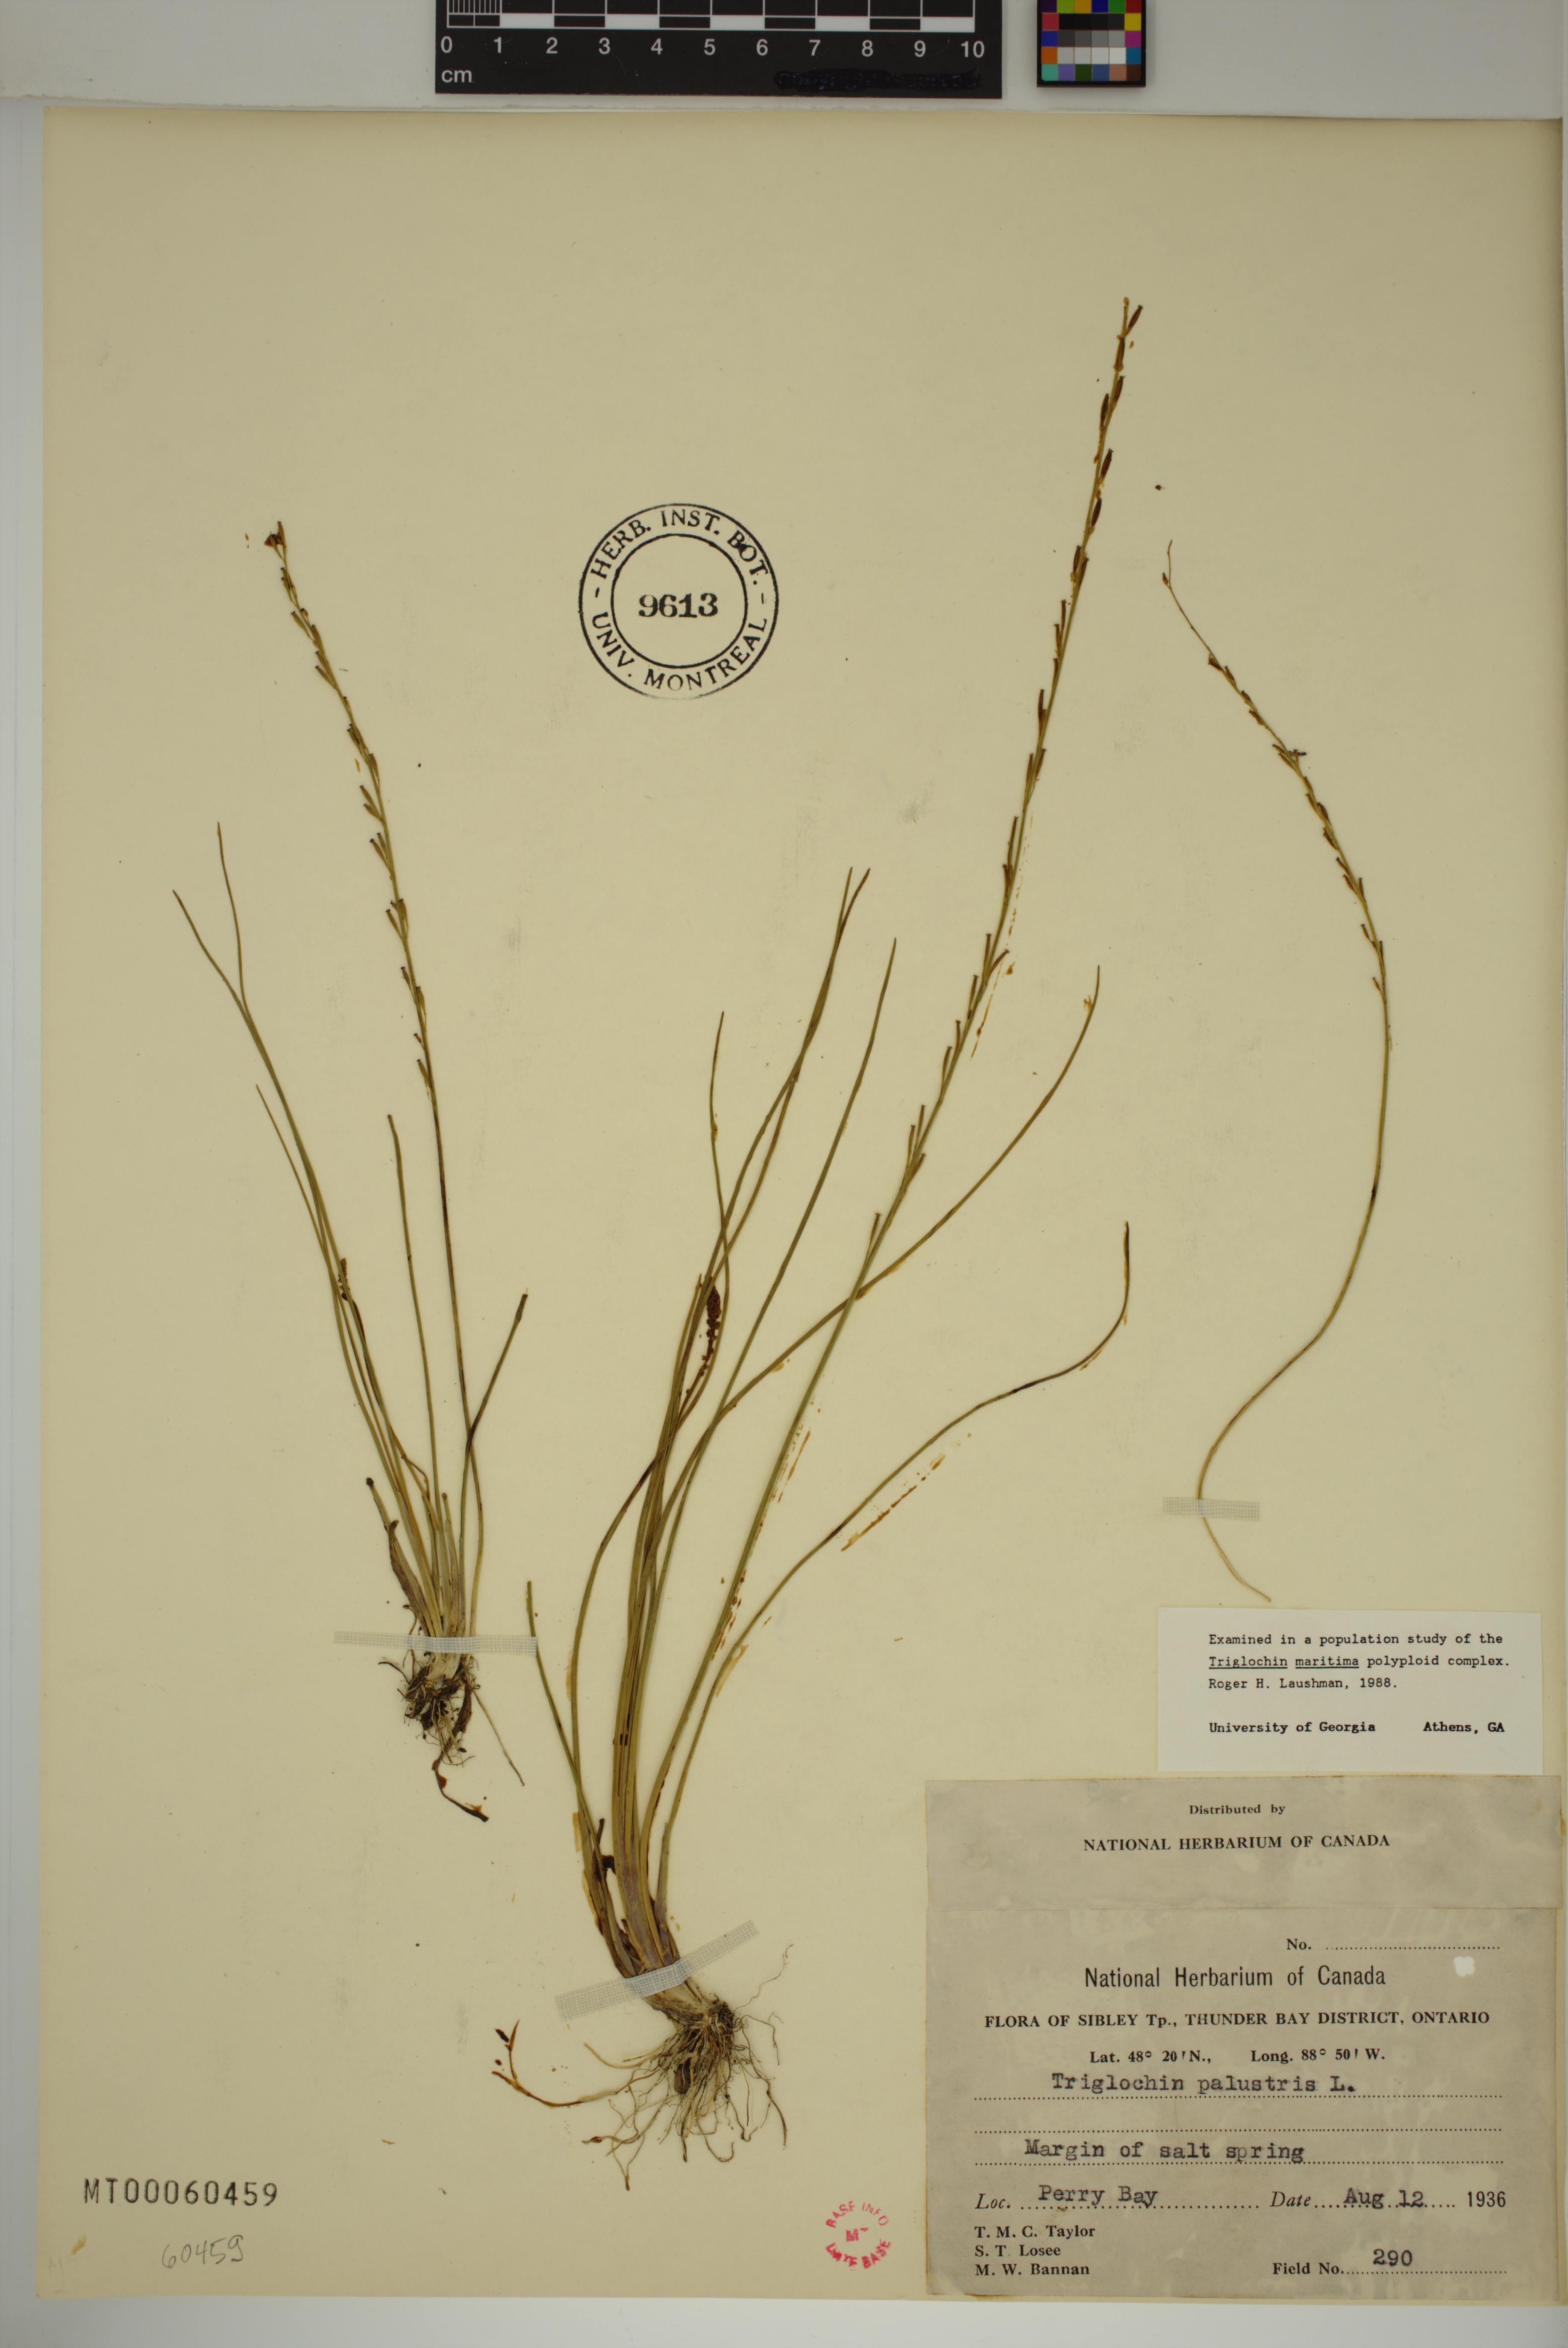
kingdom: Plantae
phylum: Tracheophyta
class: Liliopsida
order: Alismatales
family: Juncaginaceae
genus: Triglochin
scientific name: Triglochin palustris
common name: Marsh arrowgrass
